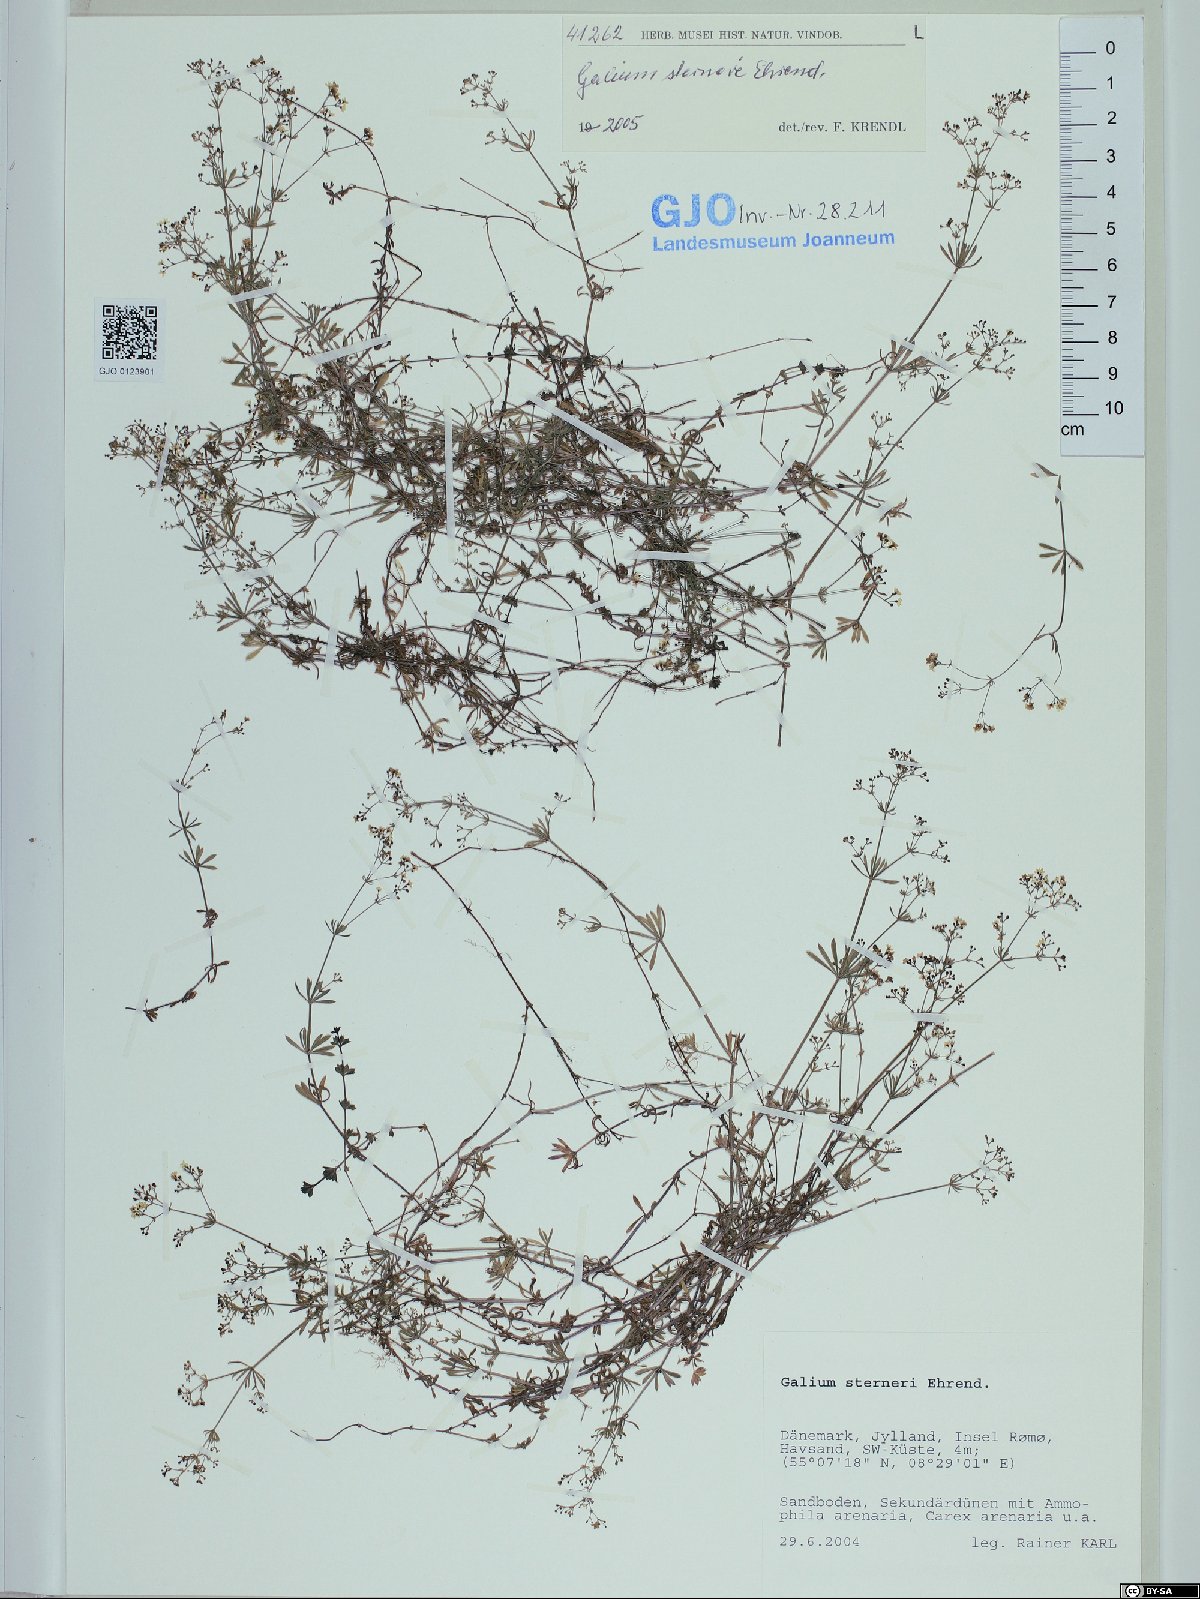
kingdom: Plantae
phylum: Tracheophyta
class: Magnoliopsida
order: Gentianales
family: Rubiaceae
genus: Galium
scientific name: Galium sterneri
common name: Limestone bedstraw
